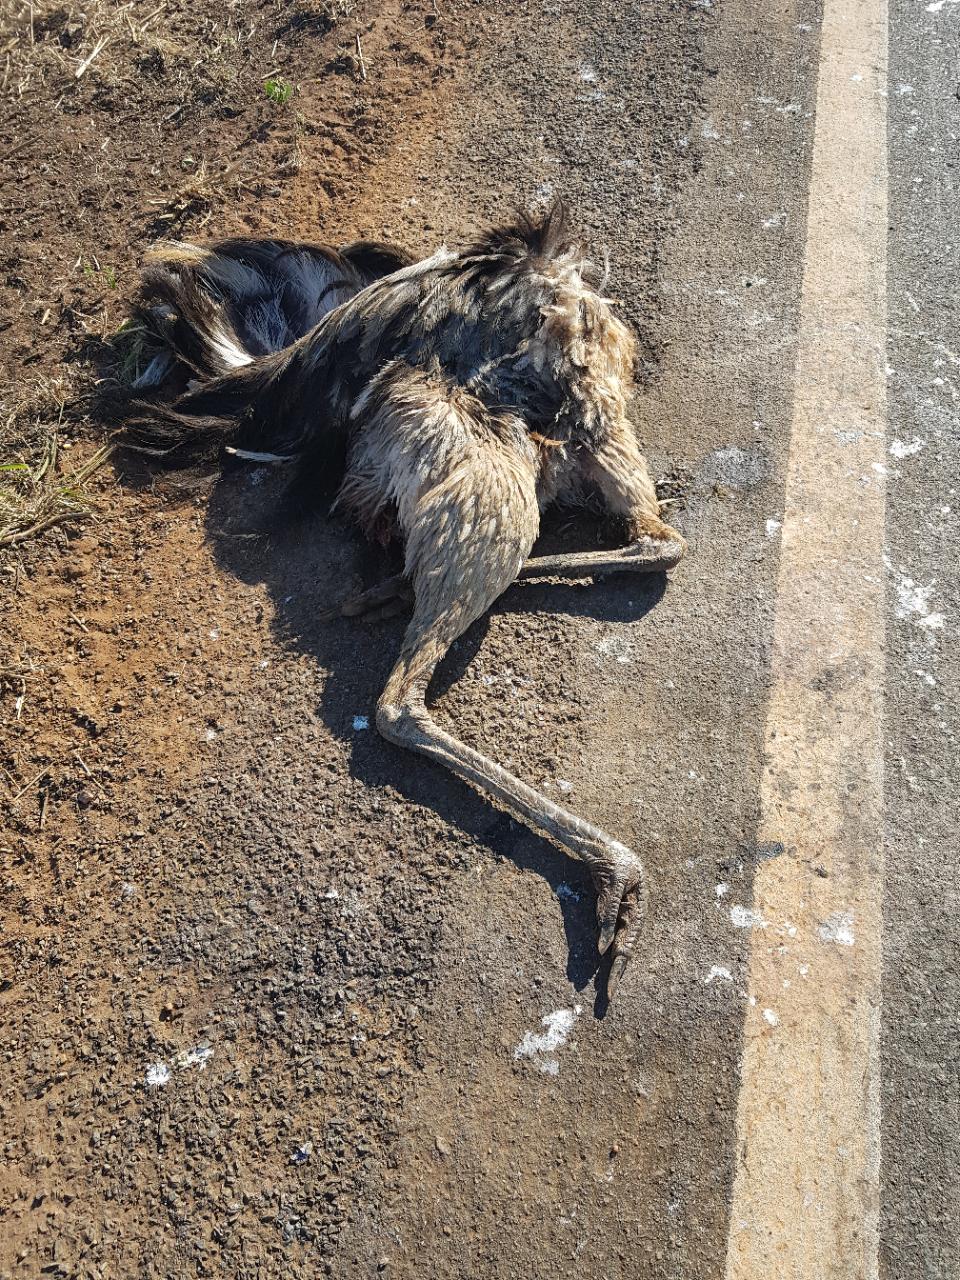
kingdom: Animalia
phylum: Chordata
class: Aves
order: Rheiformes
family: Rheidae
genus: Rhea
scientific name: Rhea americana
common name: Greater rhea
